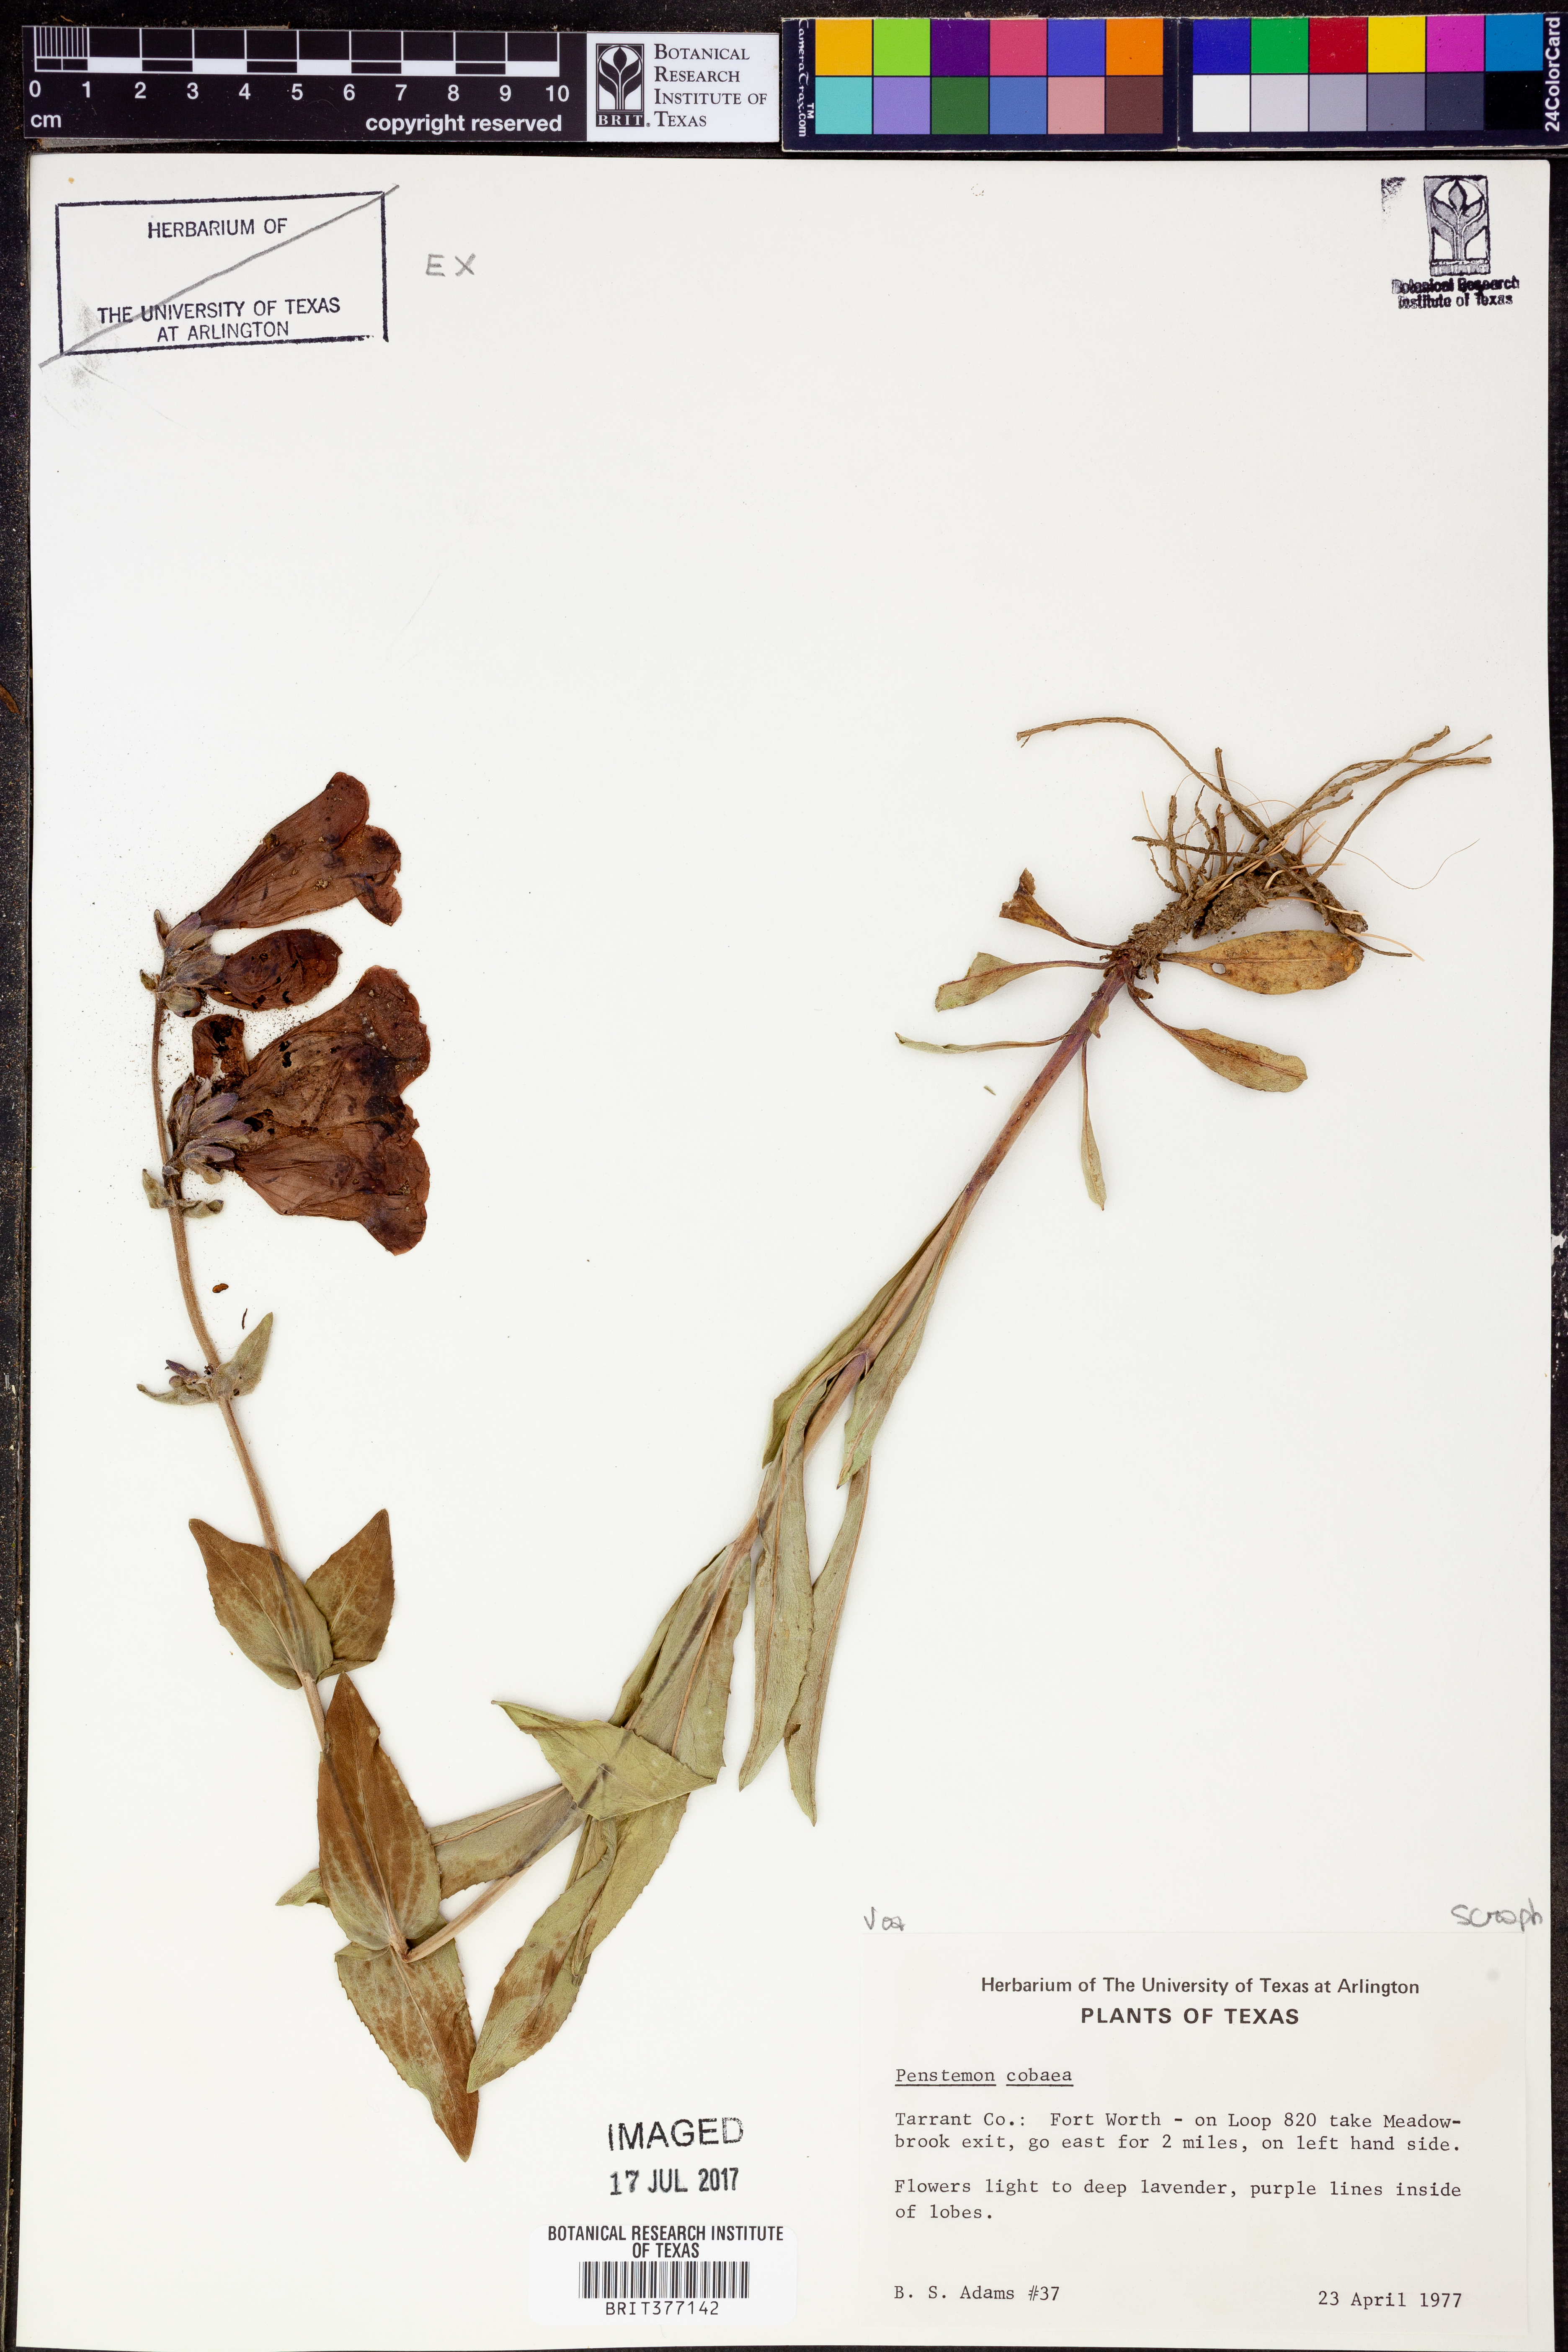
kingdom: Plantae
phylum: Tracheophyta
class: Magnoliopsida
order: Lamiales
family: Plantaginaceae
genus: Penstemon
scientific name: Penstemon cobaea
